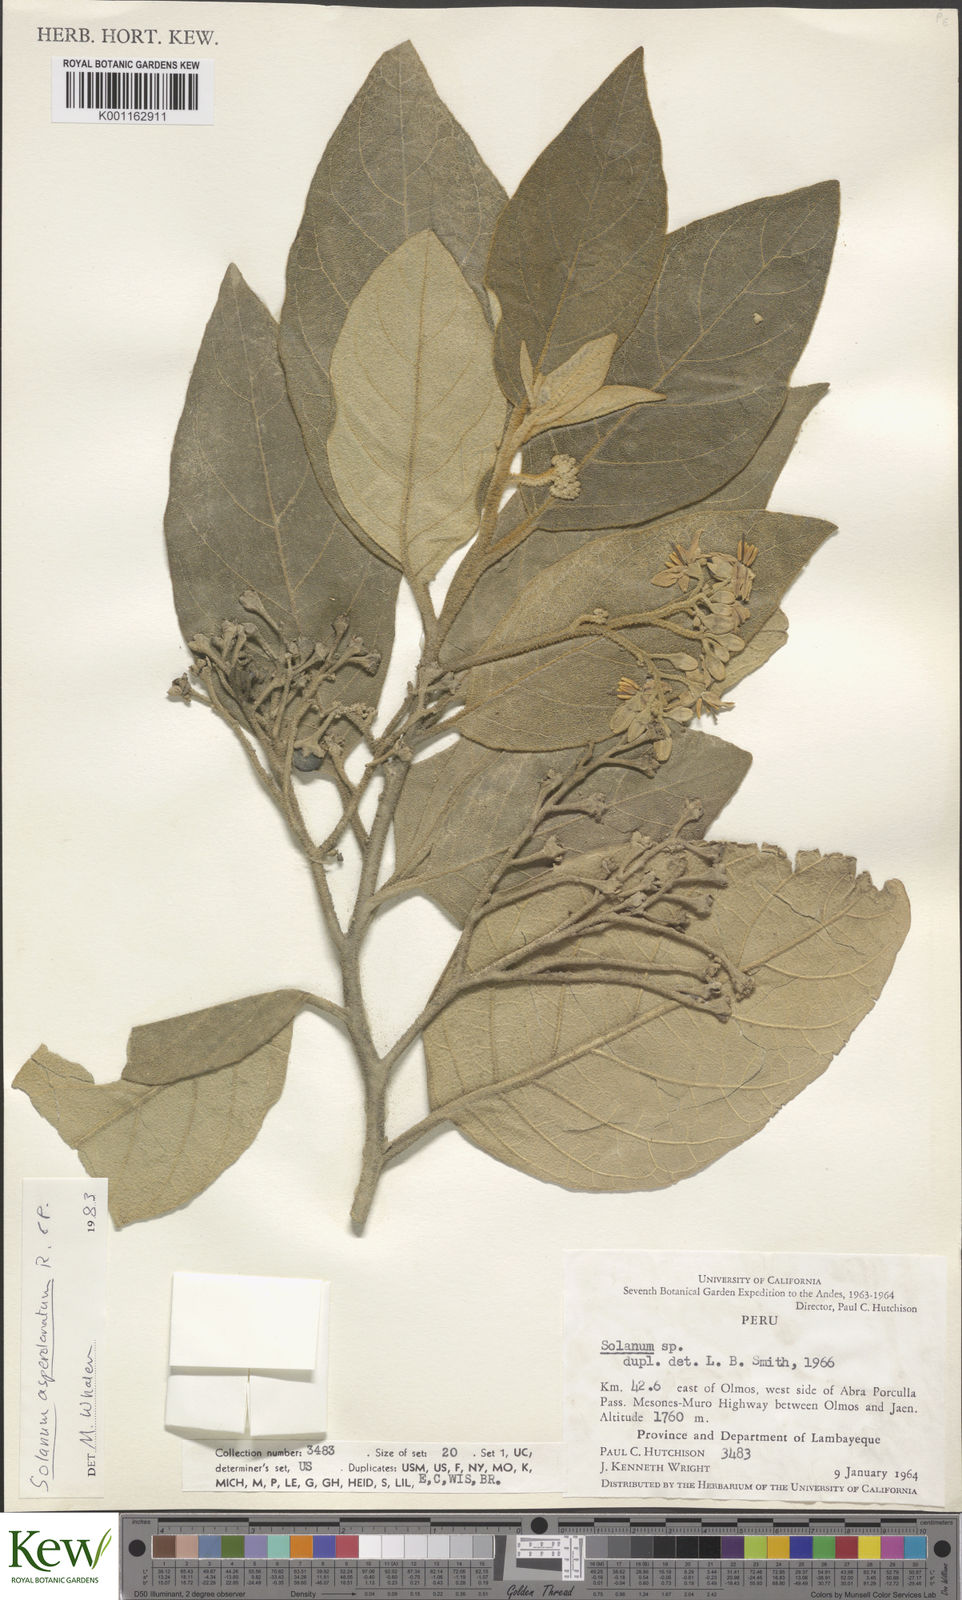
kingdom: Plantae
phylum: Tracheophyta
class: Magnoliopsida
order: Solanales
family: Solanaceae
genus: Solanum
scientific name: Solanum asperolanatum
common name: Devil's-fig
